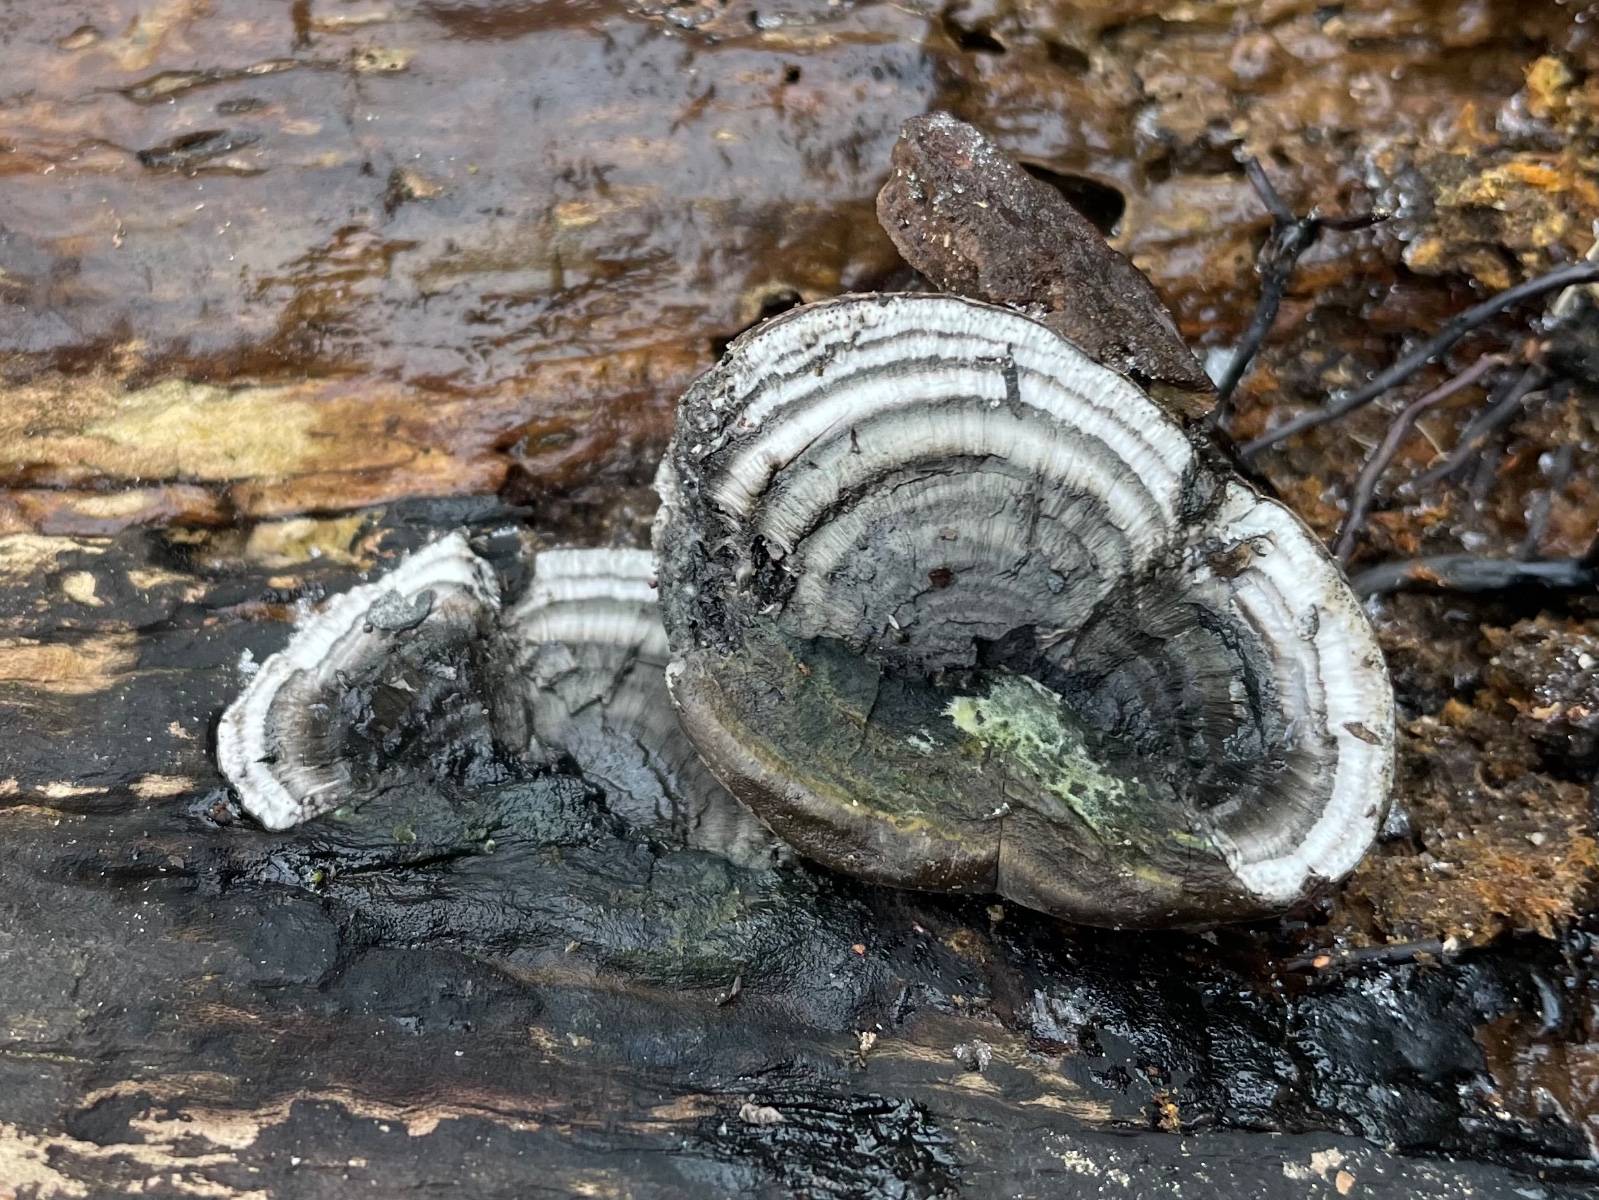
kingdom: Fungi
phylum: Ascomycota
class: Sordariomycetes
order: Xylariales
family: Hypoxylaceae
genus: Daldinia
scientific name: Daldinia concentrica
